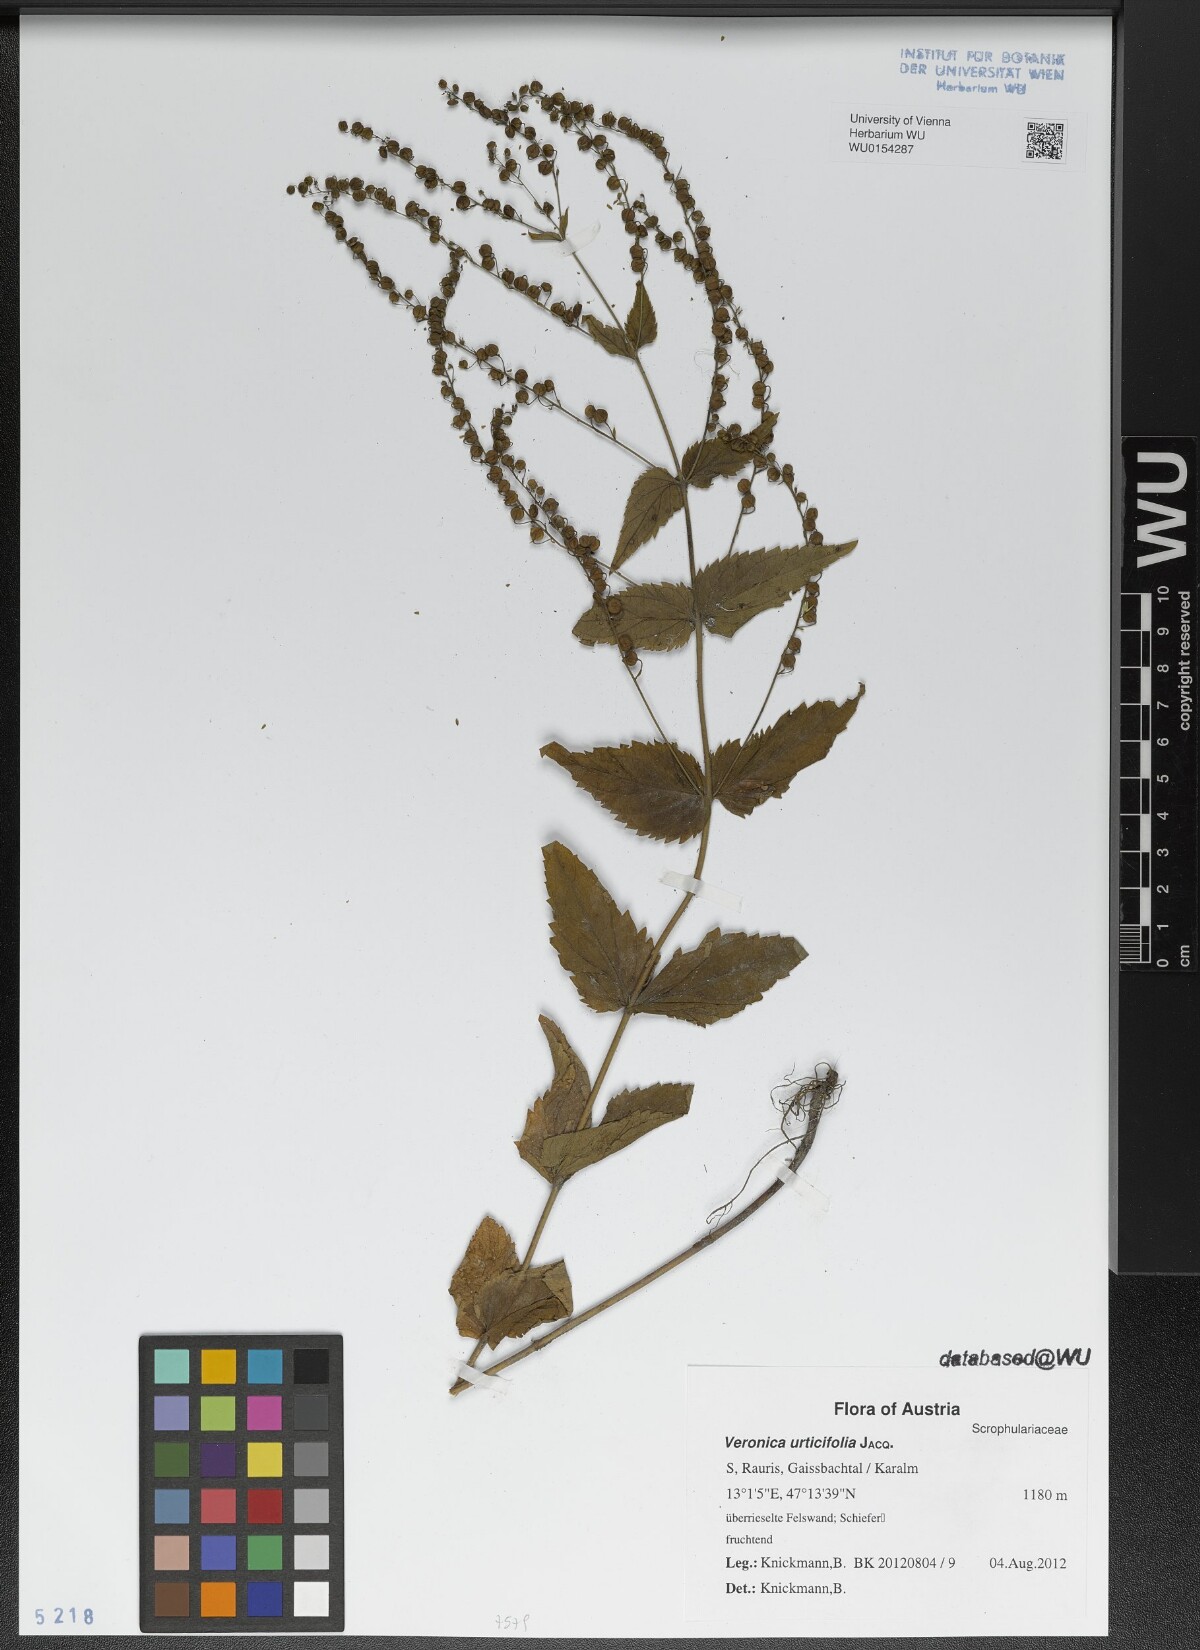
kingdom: Plantae
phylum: Tracheophyta
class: Magnoliopsida
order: Lamiales
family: Plantaginaceae
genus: Veronica
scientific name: Veronica urticifolia
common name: Nettle-leaf speedwell
